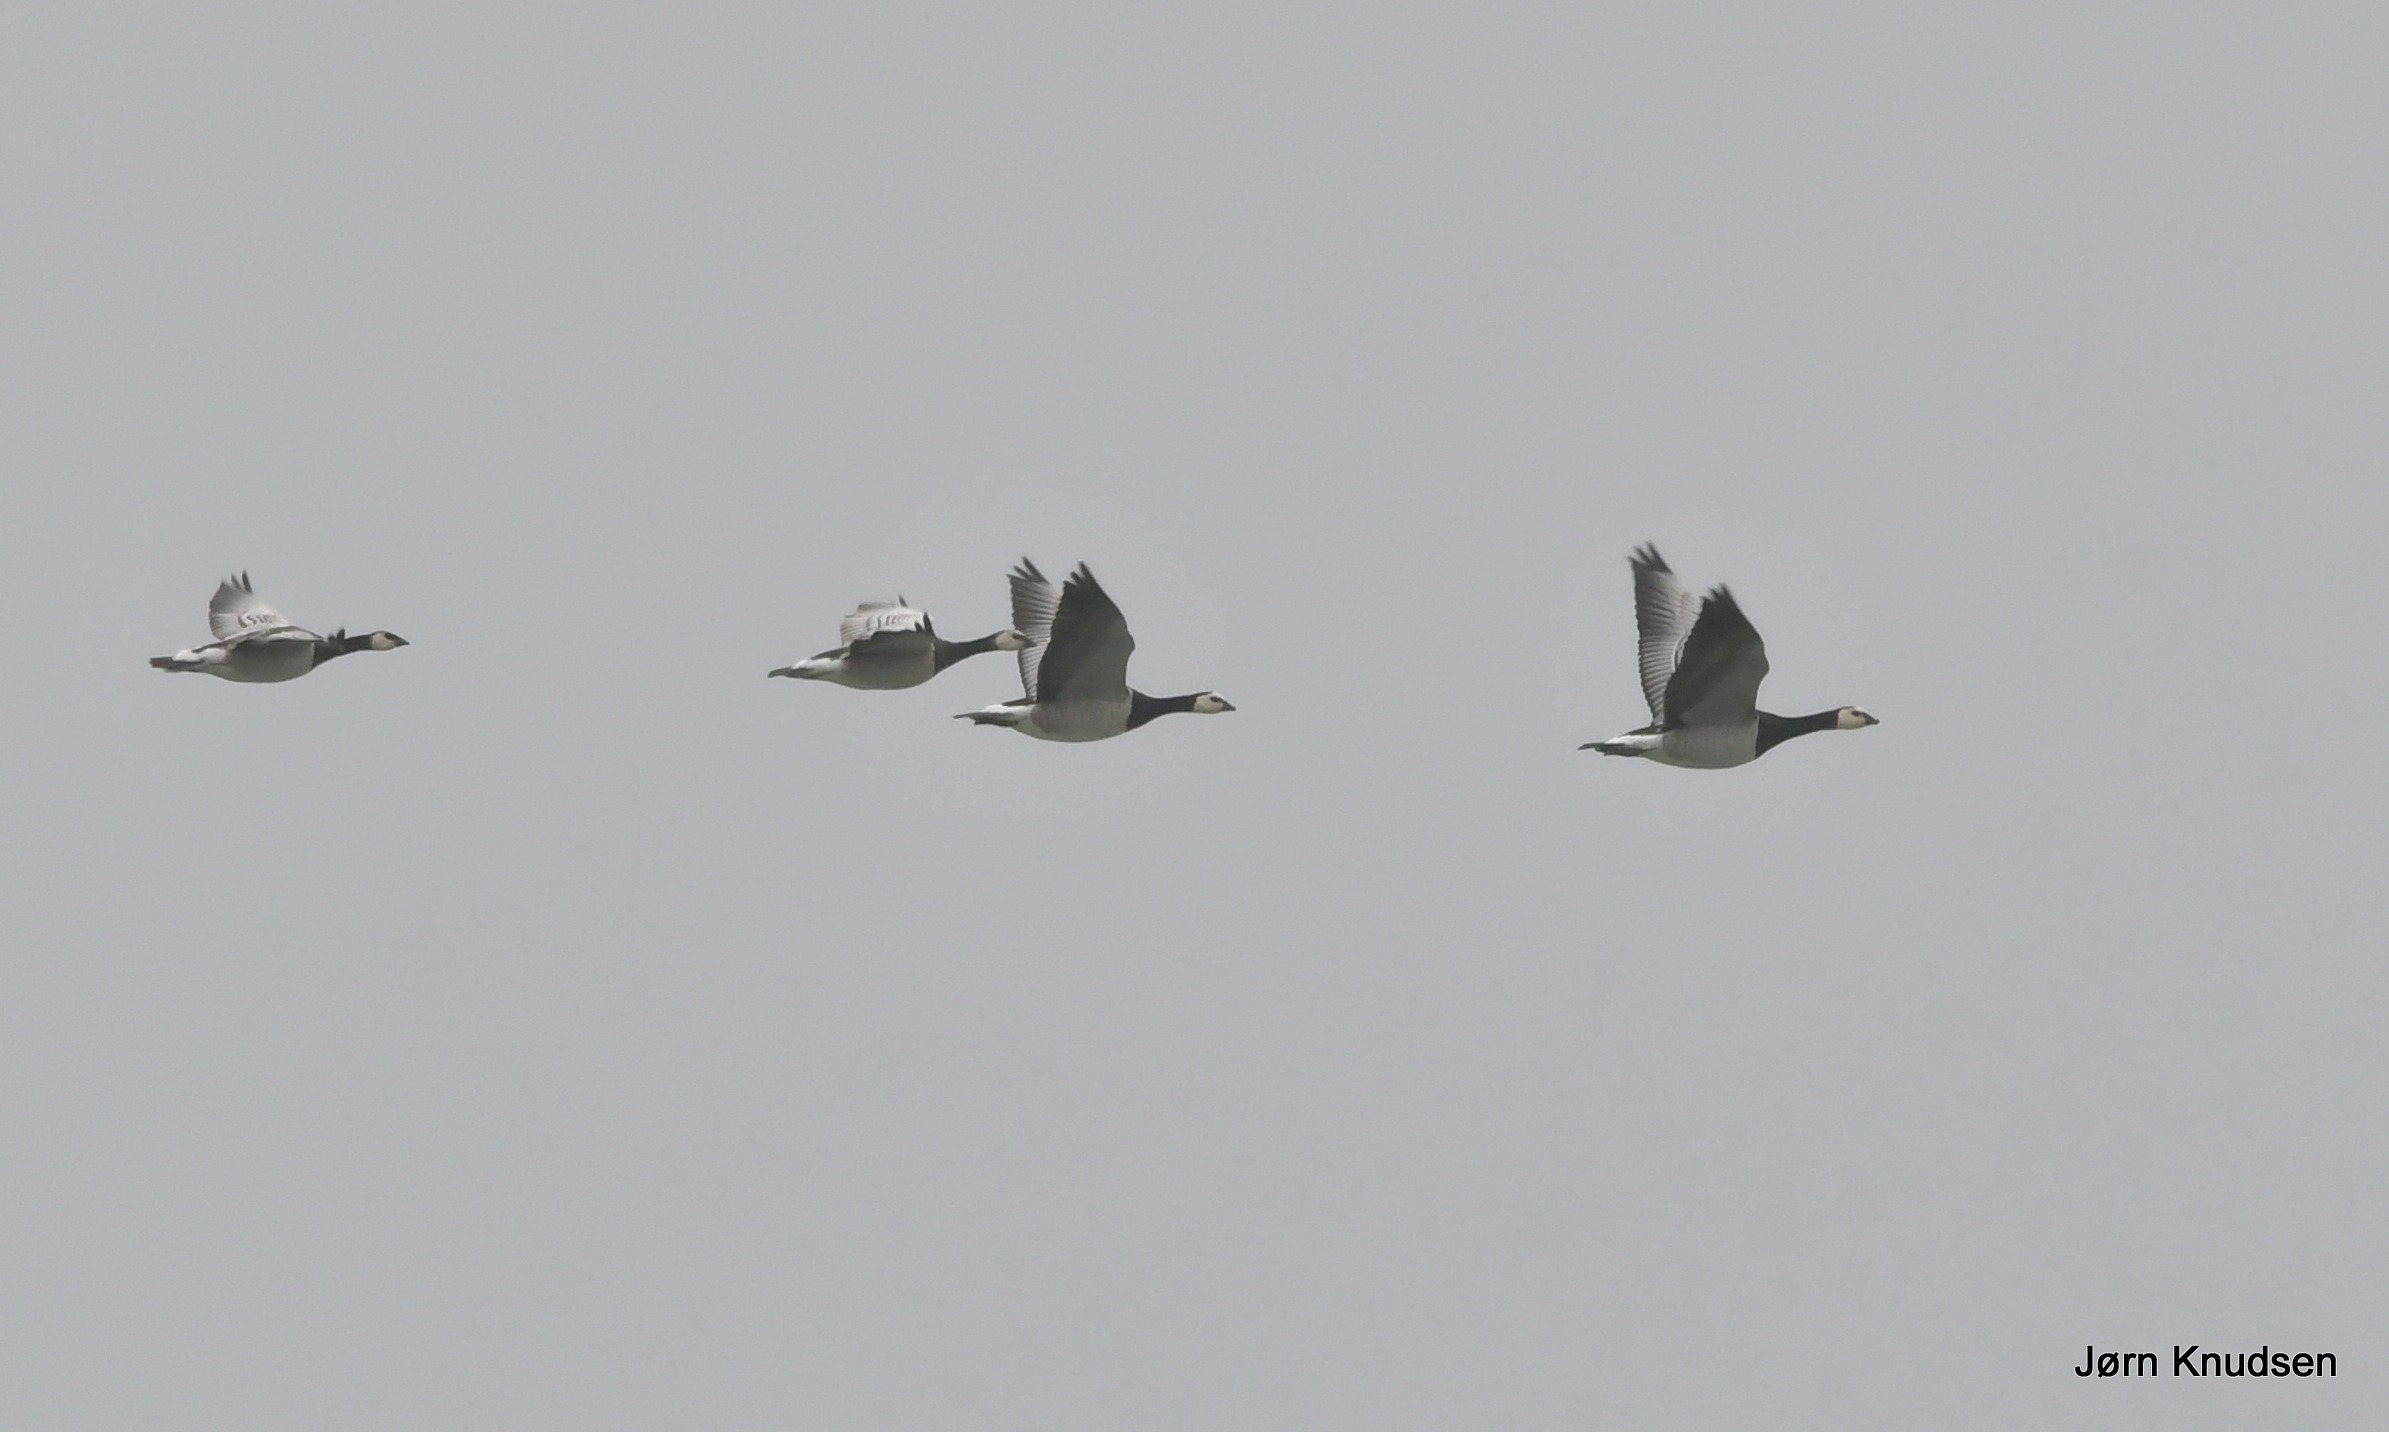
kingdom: Animalia
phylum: Chordata
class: Aves
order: Anseriformes
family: Anatidae
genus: Branta
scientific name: Branta leucopsis
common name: Bramgås
